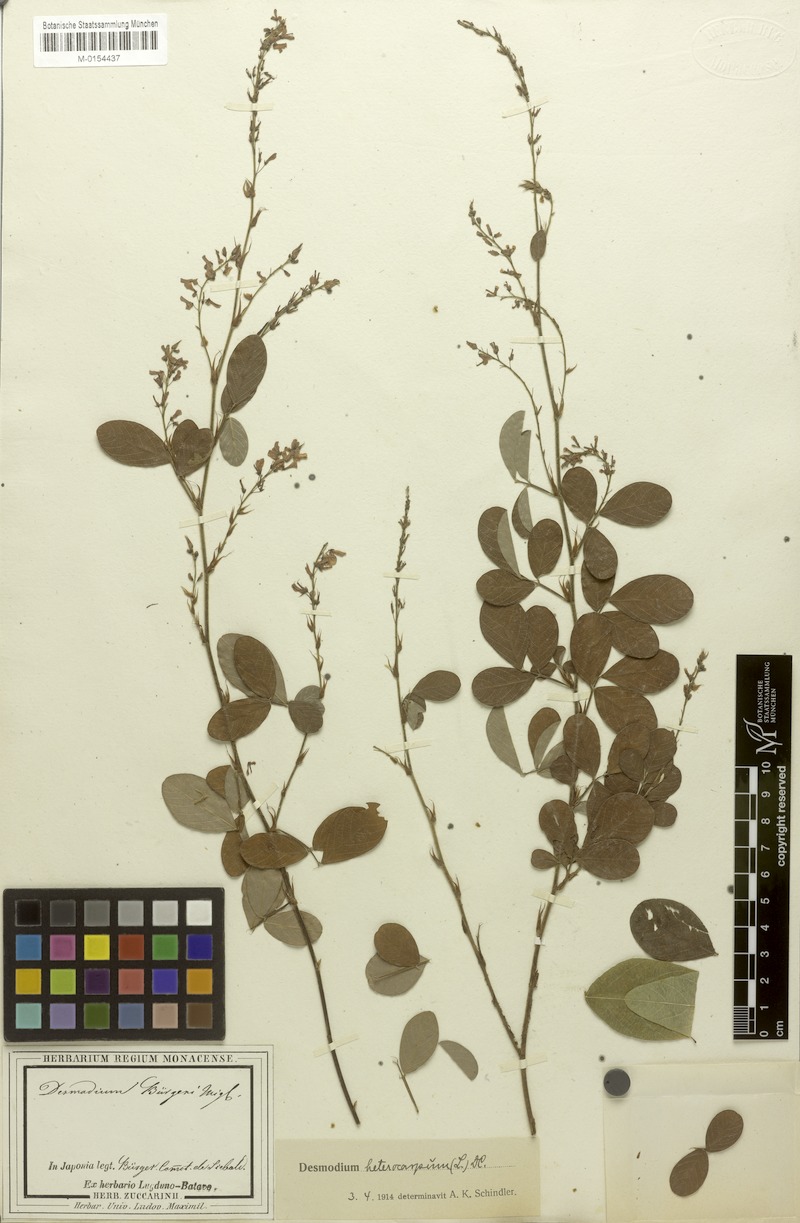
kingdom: Plantae
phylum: Tracheophyta
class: Magnoliopsida
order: Fabales
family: Fabaceae
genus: Grona
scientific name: Grona heterocarpos
